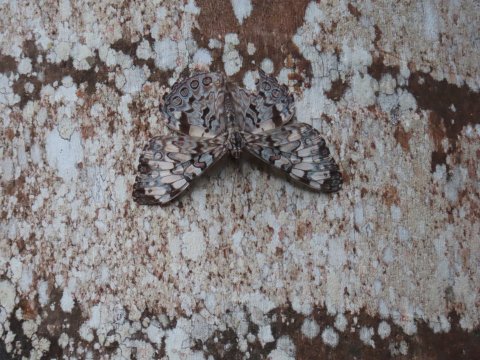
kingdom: Animalia
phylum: Arthropoda
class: Insecta
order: Lepidoptera
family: Nymphalidae
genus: Hamadryas
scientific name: Hamadryas guatemalena
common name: Guatemalan Cracker
